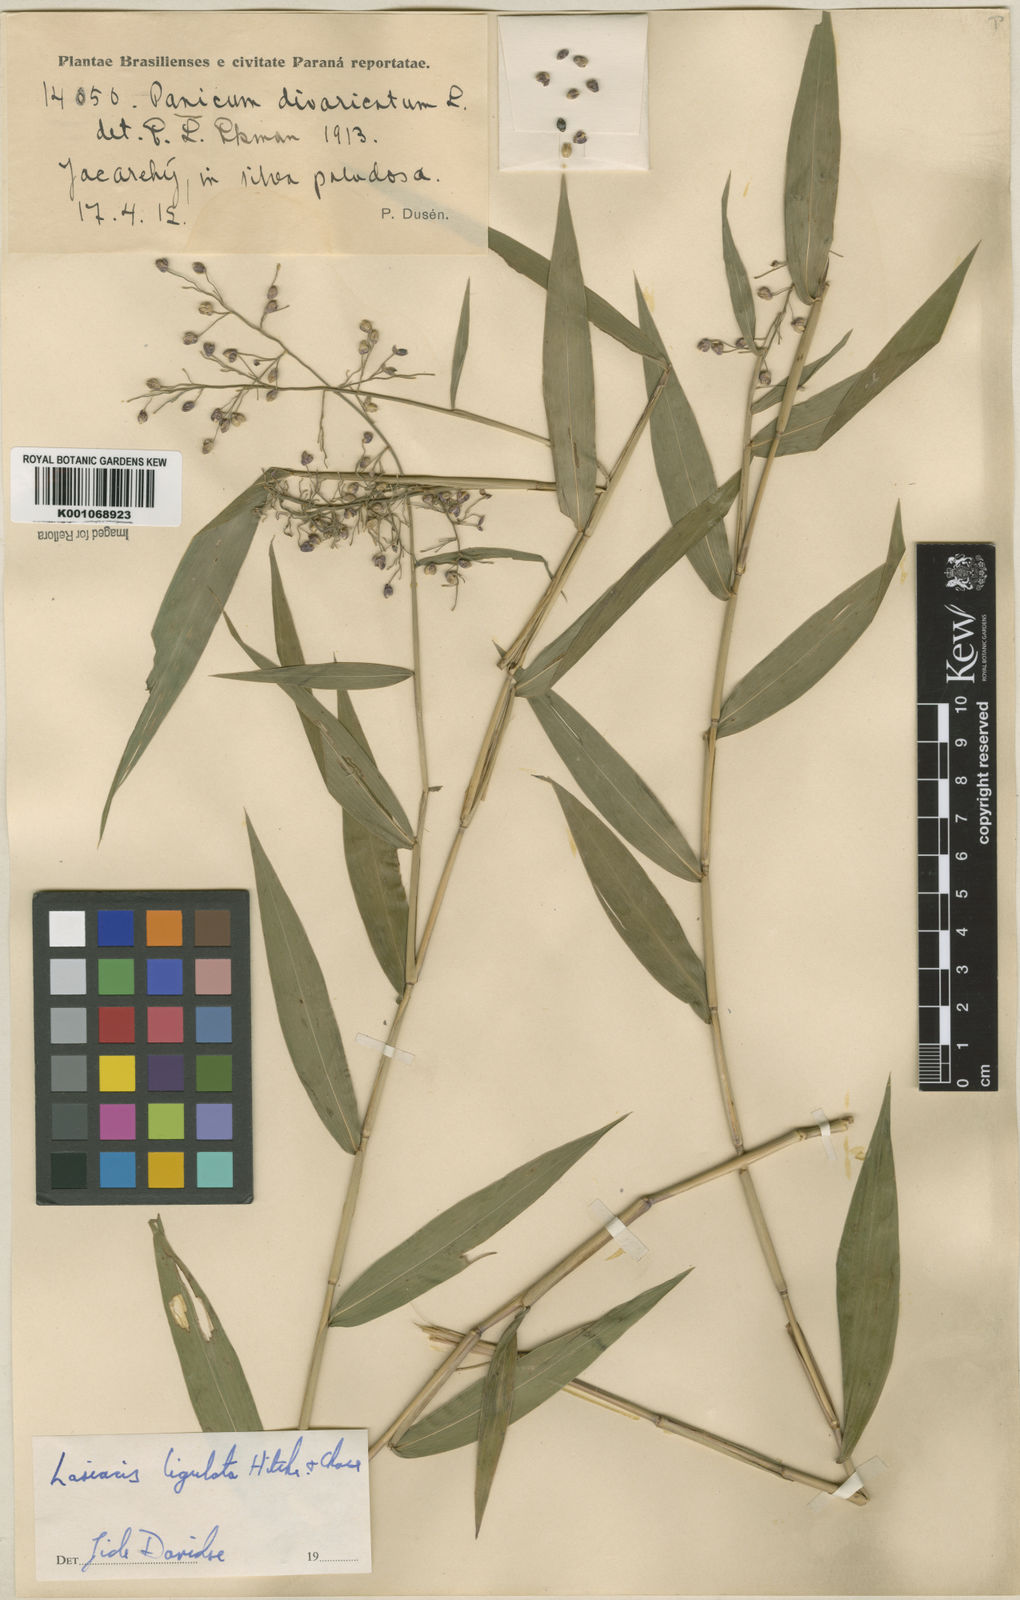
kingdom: Plantae
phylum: Tracheophyta
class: Liliopsida
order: Poales
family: Poaceae
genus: Lasiacis
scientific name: Lasiacis ligulata
